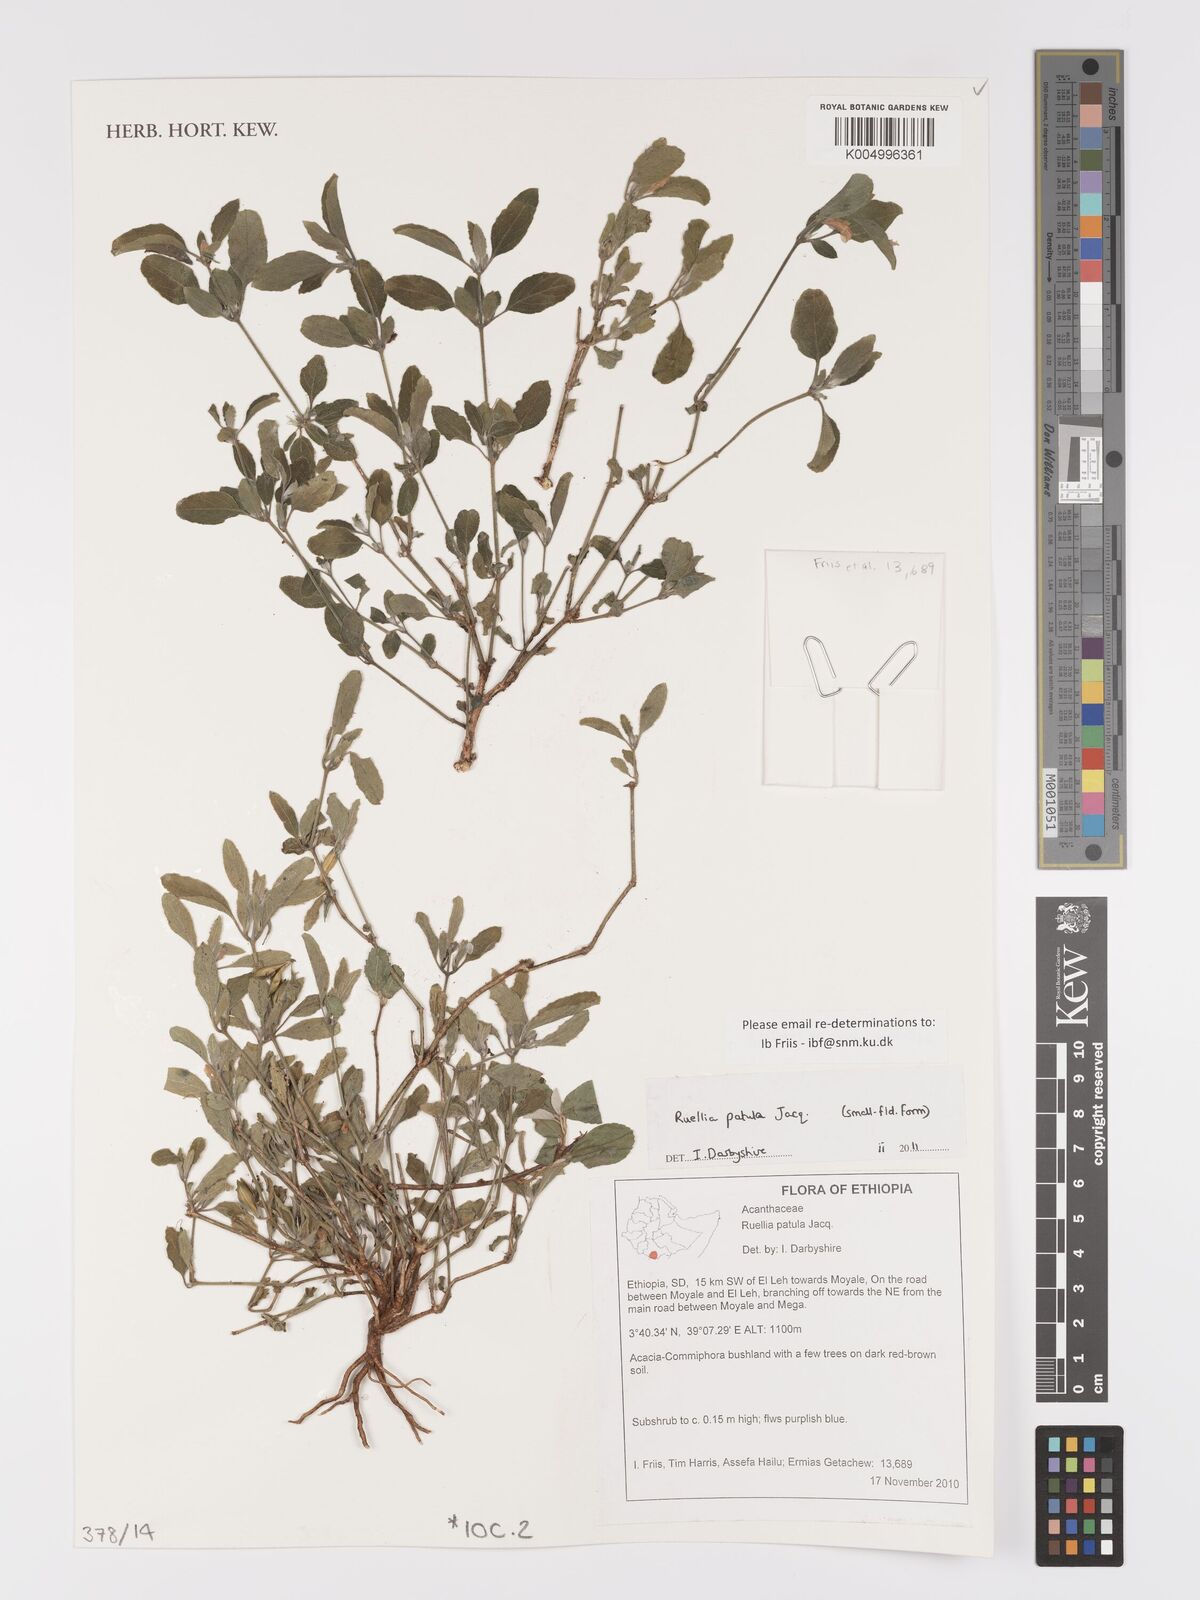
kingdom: Plantae
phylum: Tracheophyta
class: Magnoliopsida
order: Lamiales
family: Acanthaceae
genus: Ruellia
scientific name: Ruellia patula
